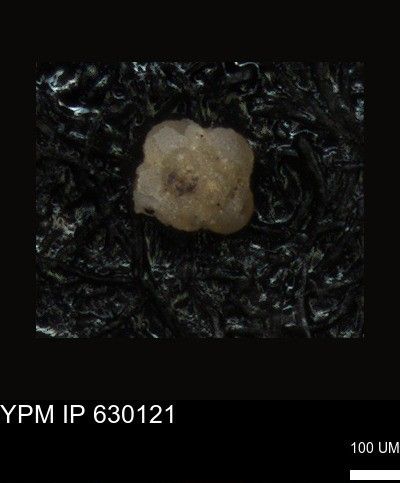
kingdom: Chromista
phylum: Foraminifera
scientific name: Foraminifera
